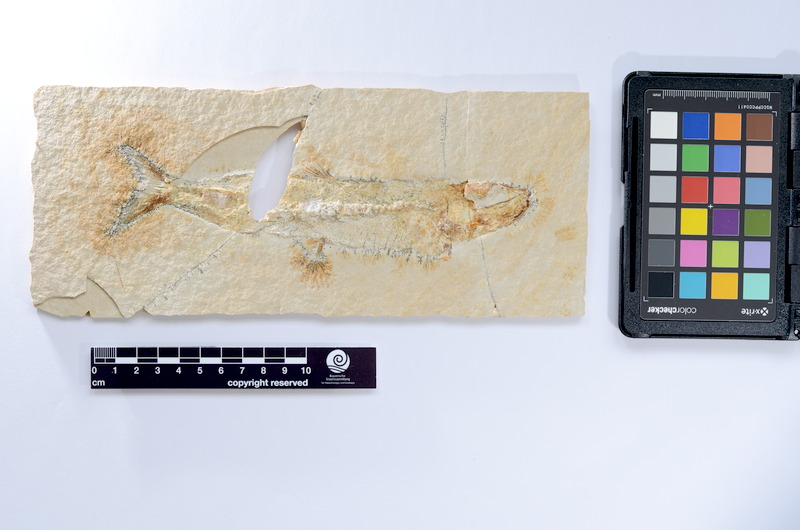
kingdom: Animalia
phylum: Chordata
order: Elopiformes
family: Anaethalionidae
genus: Anaethalion
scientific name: Anaethalion knorri
